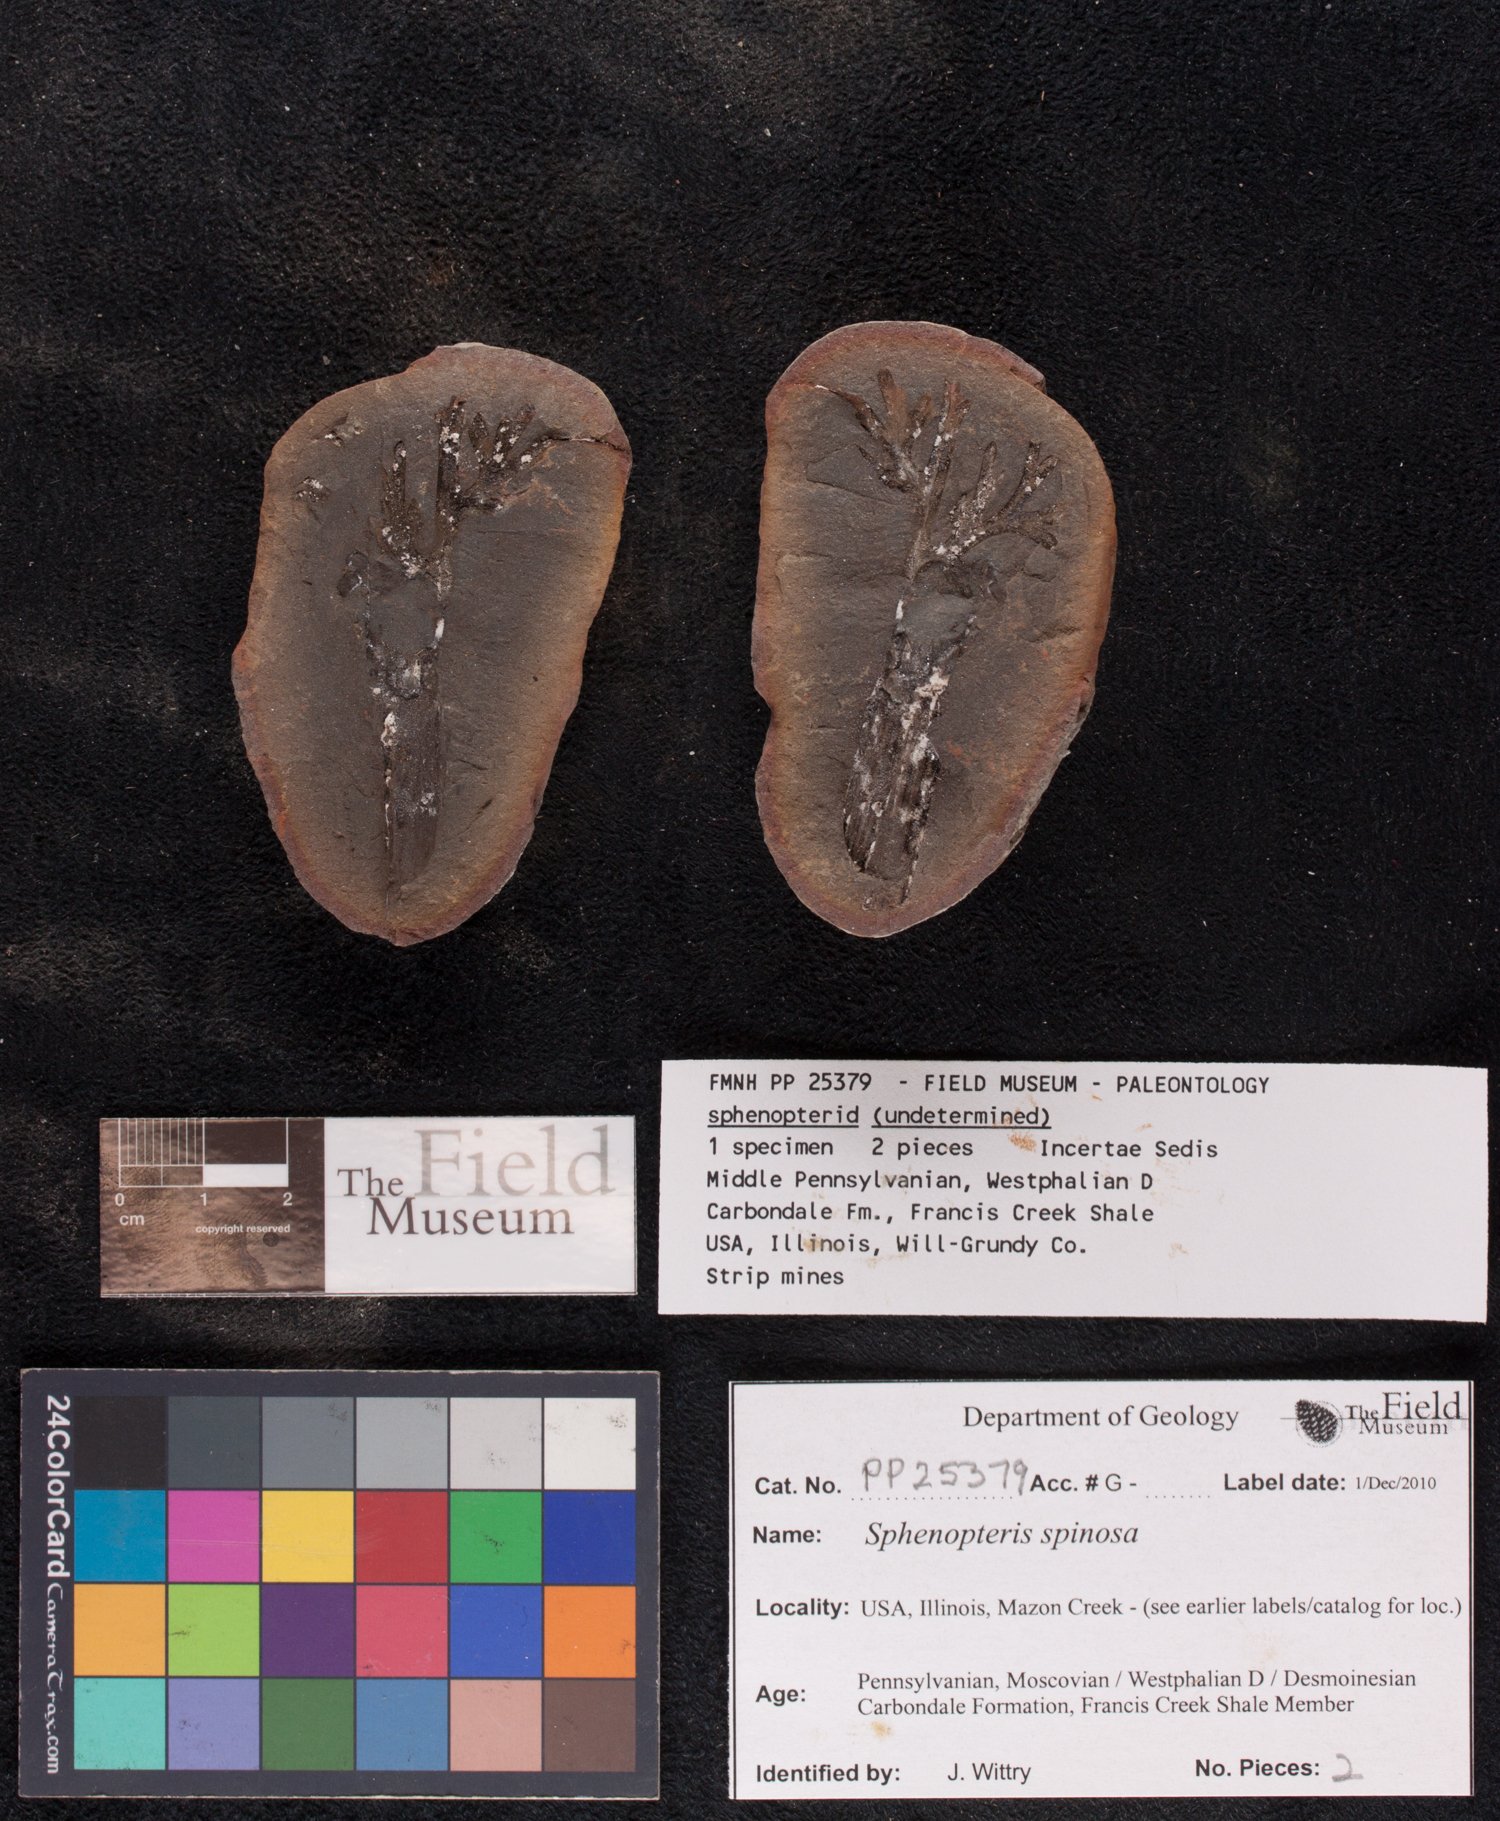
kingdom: Plantae
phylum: Tracheophyta
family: Lyginopteridaceae
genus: Sphenopteris
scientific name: Sphenopteris
